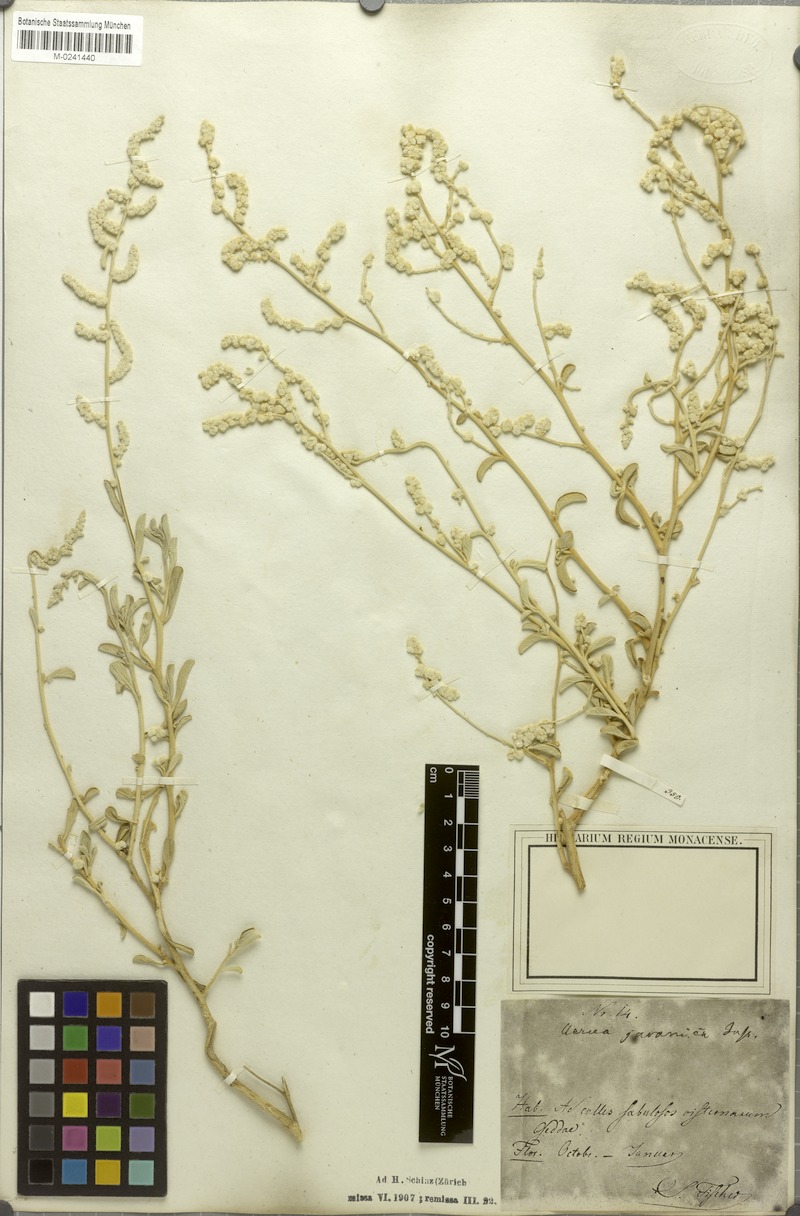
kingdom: Plantae
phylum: Tracheophyta
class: Magnoliopsida
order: Caryophyllales
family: Amaranthaceae
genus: Aerva
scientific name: Aerva javanica
